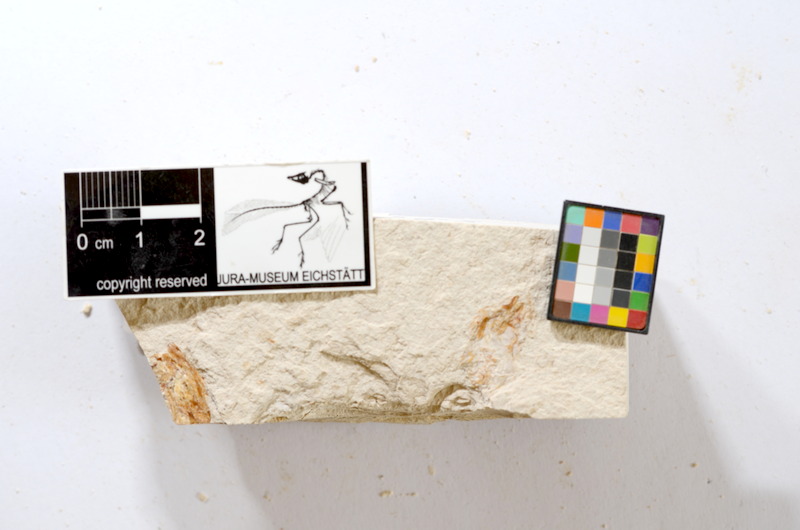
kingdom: Animalia
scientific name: Animalia
